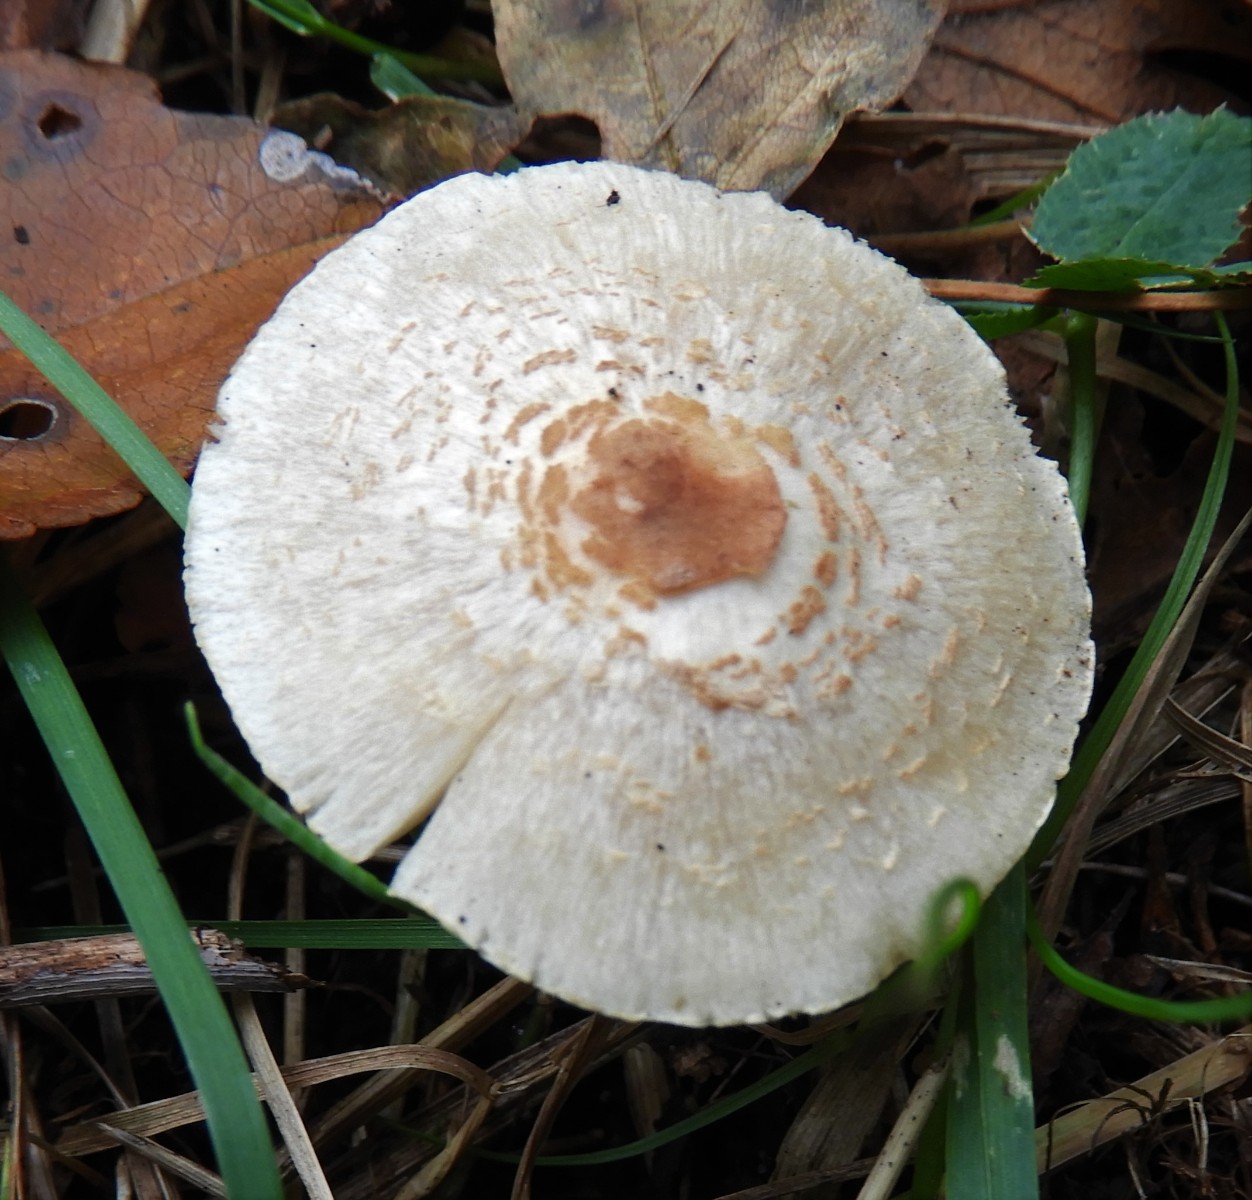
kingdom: Fungi
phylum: Basidiomycota
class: Agaricomycetes
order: Agaricales
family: Agaricaceae
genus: Lepiota
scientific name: Lepiota cristata
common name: stinkende parasolhat
